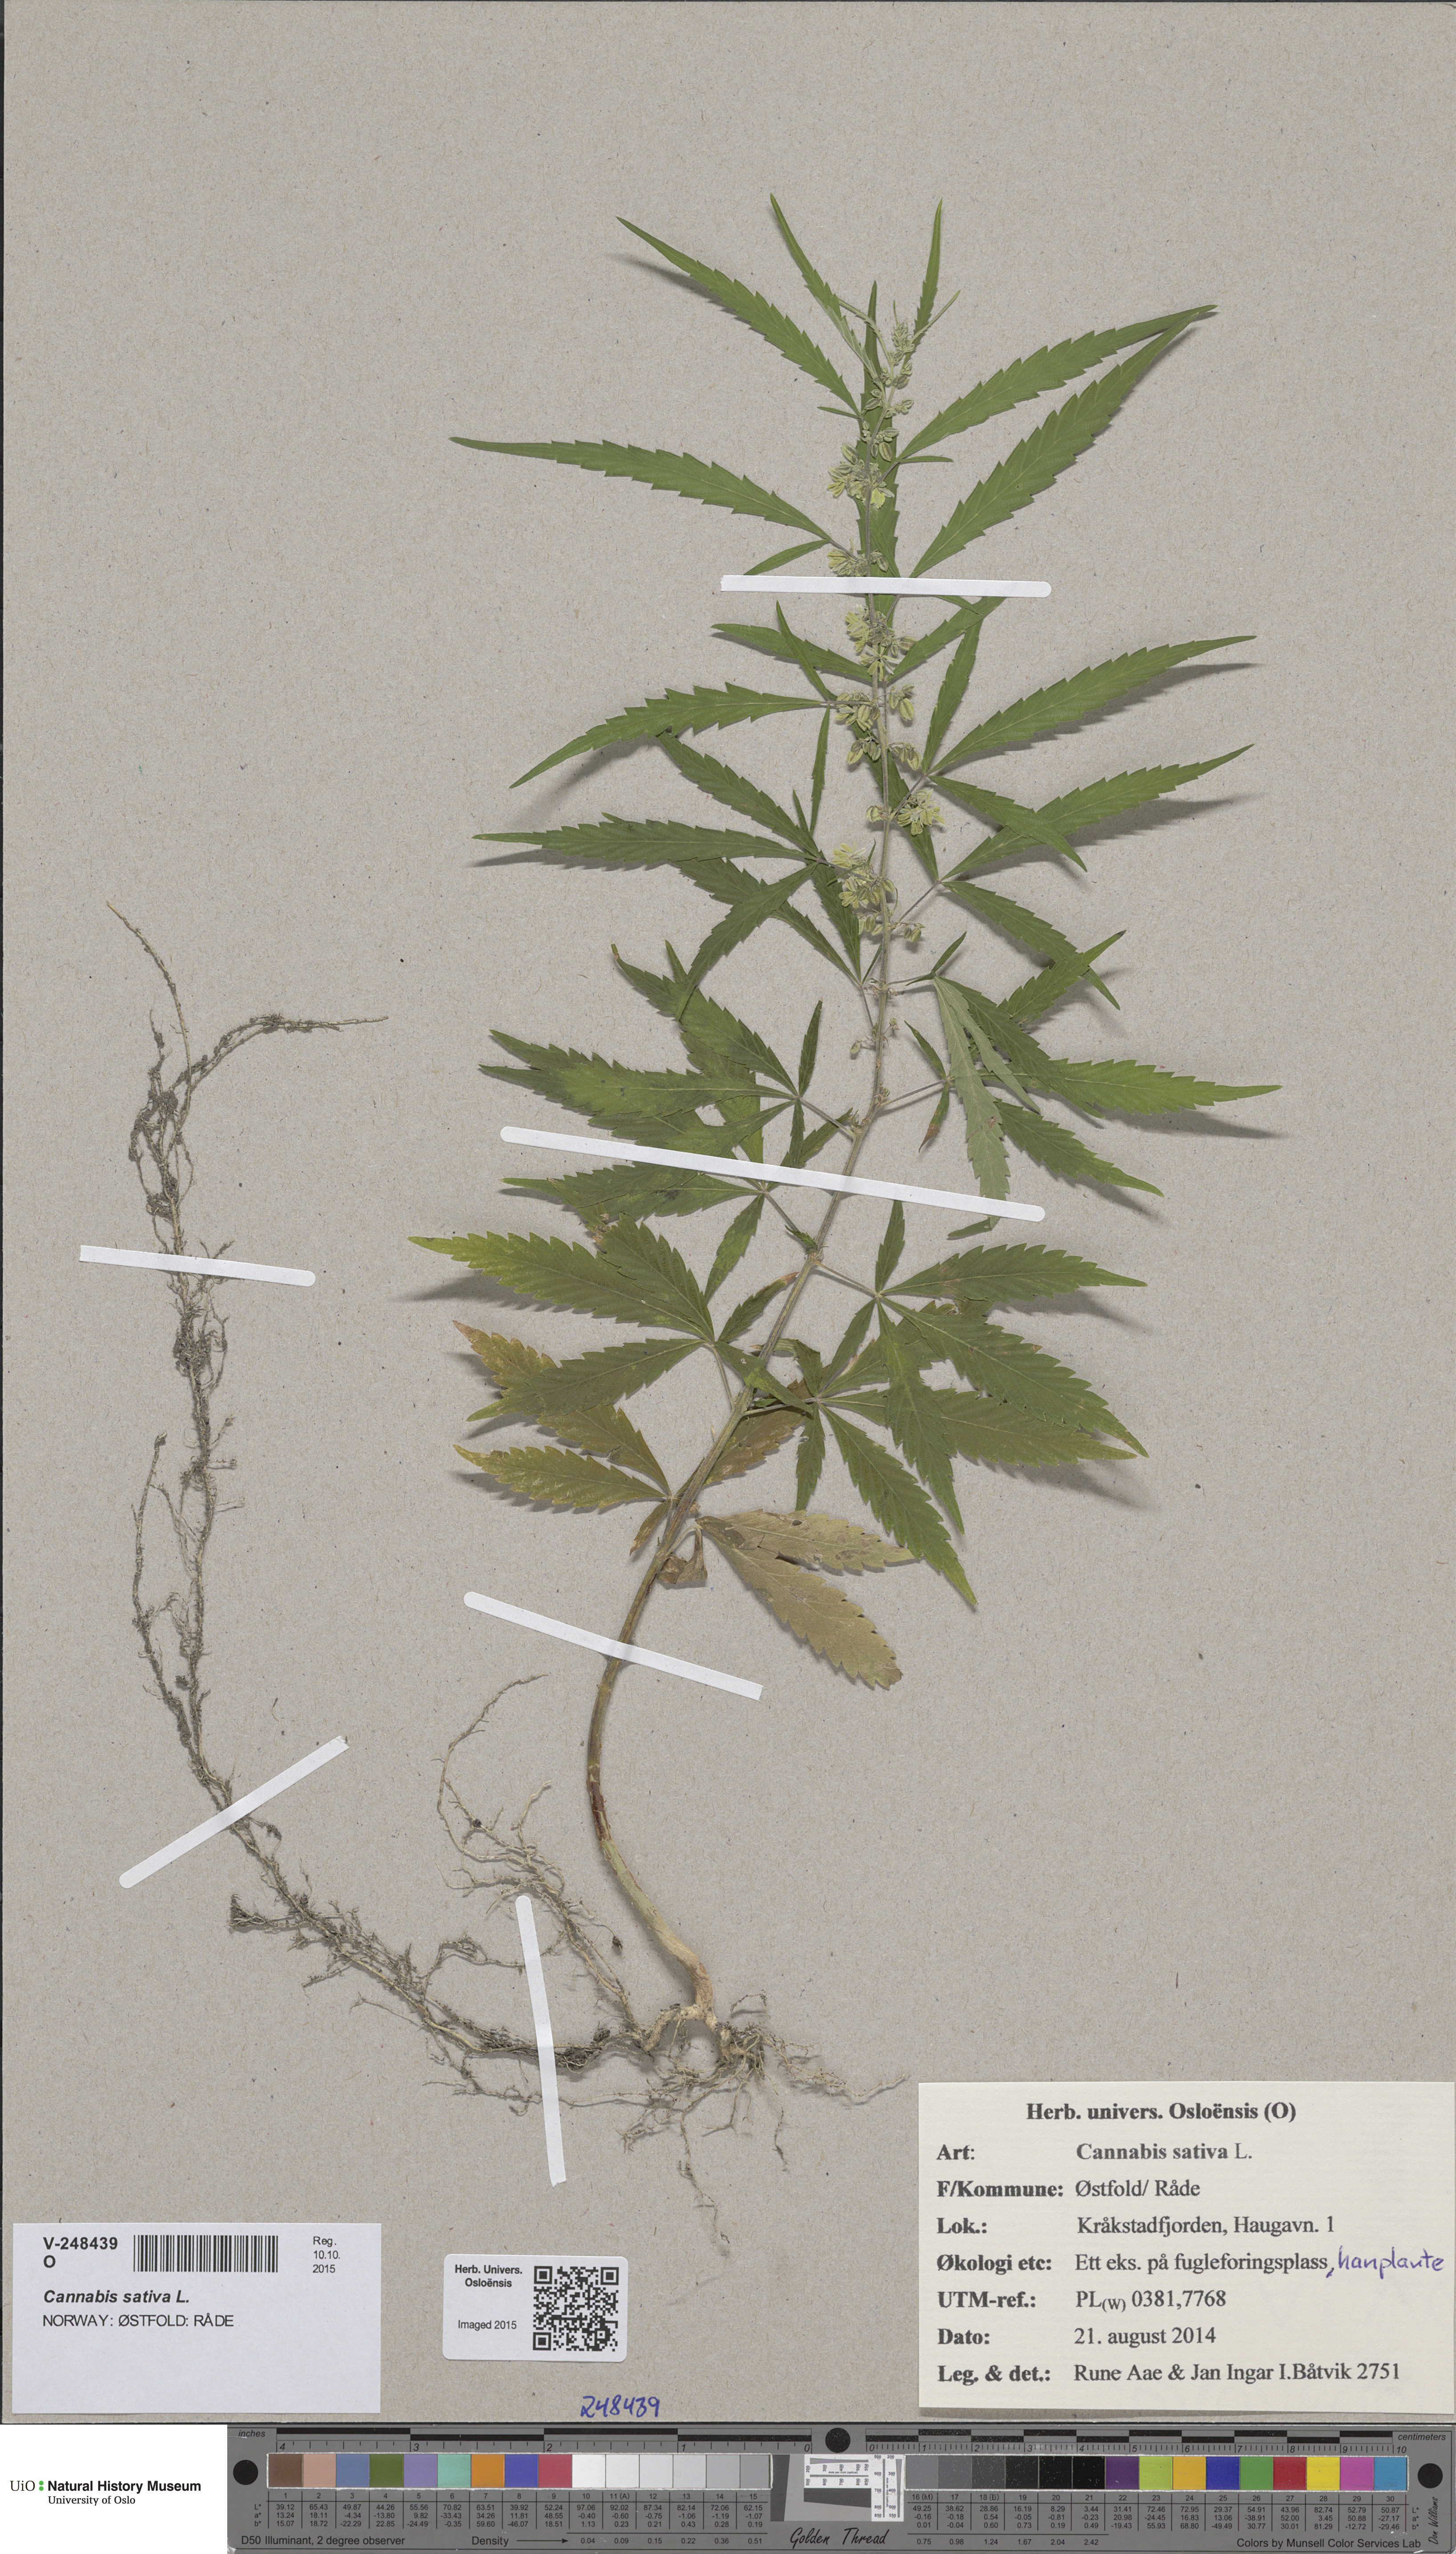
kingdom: Plantae
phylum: Tracheophyta
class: Magnoliopsida
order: Rosales
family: Cannabaceae
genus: Cannabis
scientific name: Cannabis sativa
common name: Hemp
